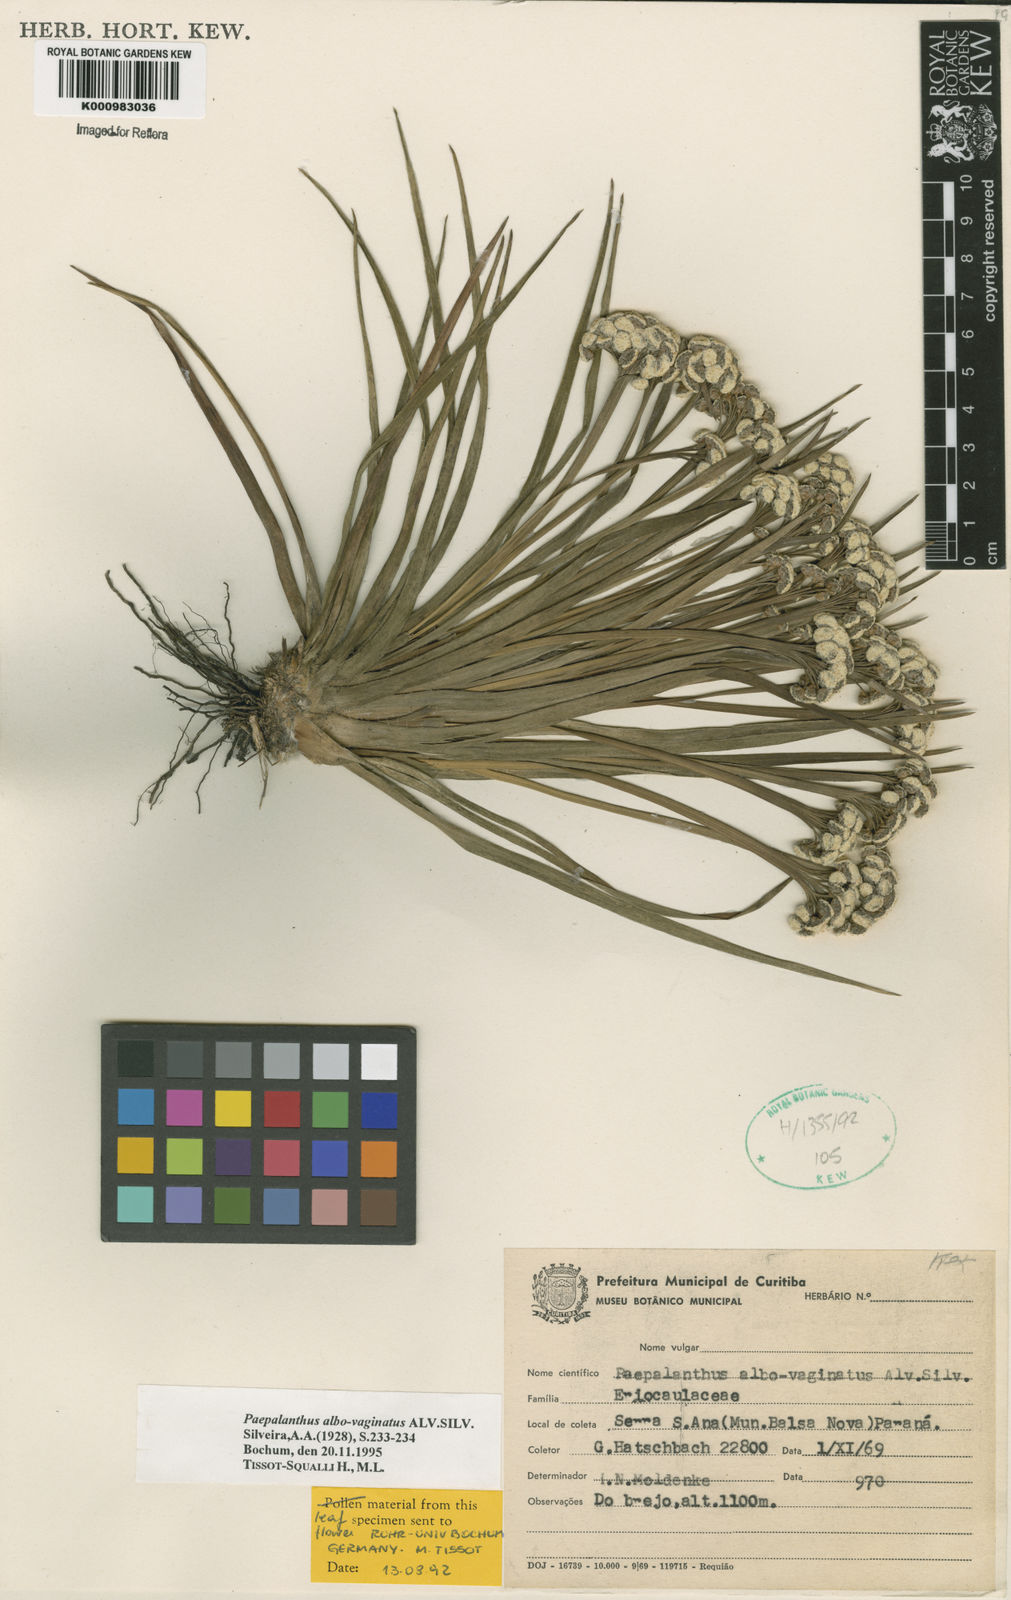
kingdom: Plantae
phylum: Tracheophyta
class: Liliopsida
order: Poales
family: Eriocaulaceae
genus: Paepalanthus
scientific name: Paepalanthus albovaginatus
